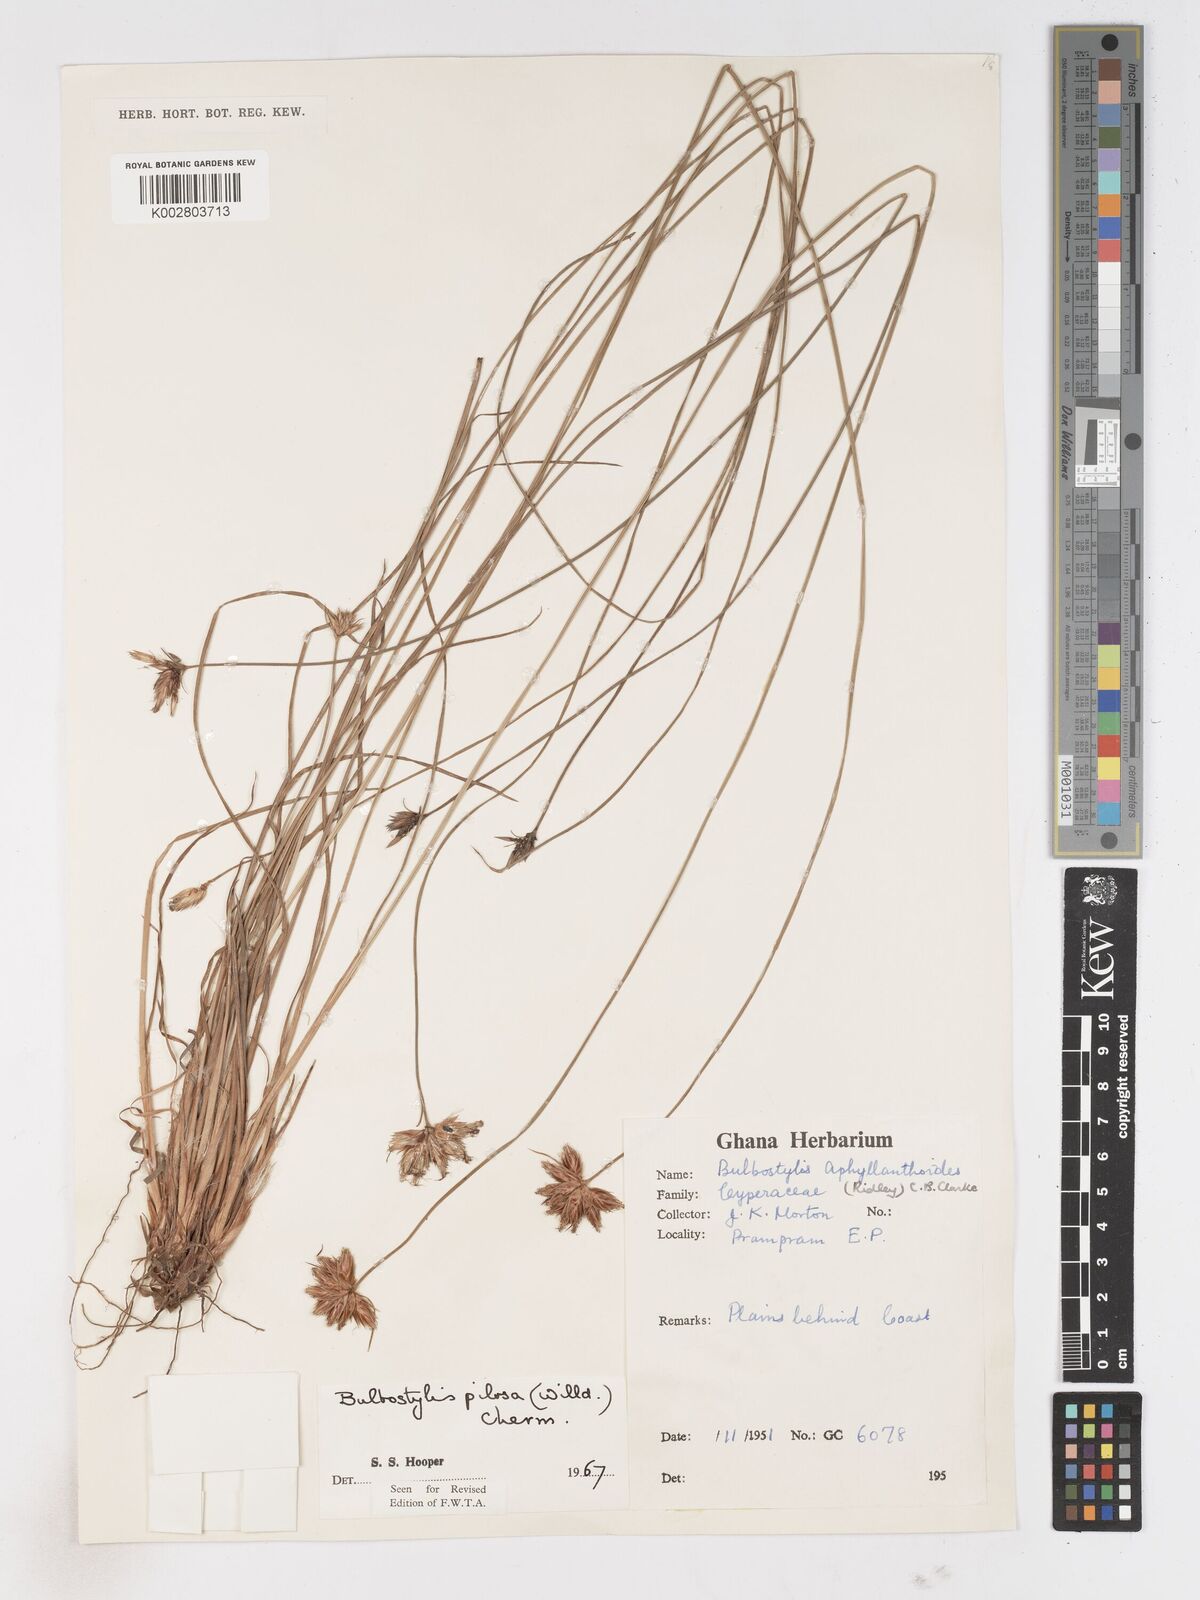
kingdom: Plantae
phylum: Tracheophyta
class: Liliopsida
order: Poales
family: Cyperaceae
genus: Bulbostylis
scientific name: Bulbostylis pilosa
